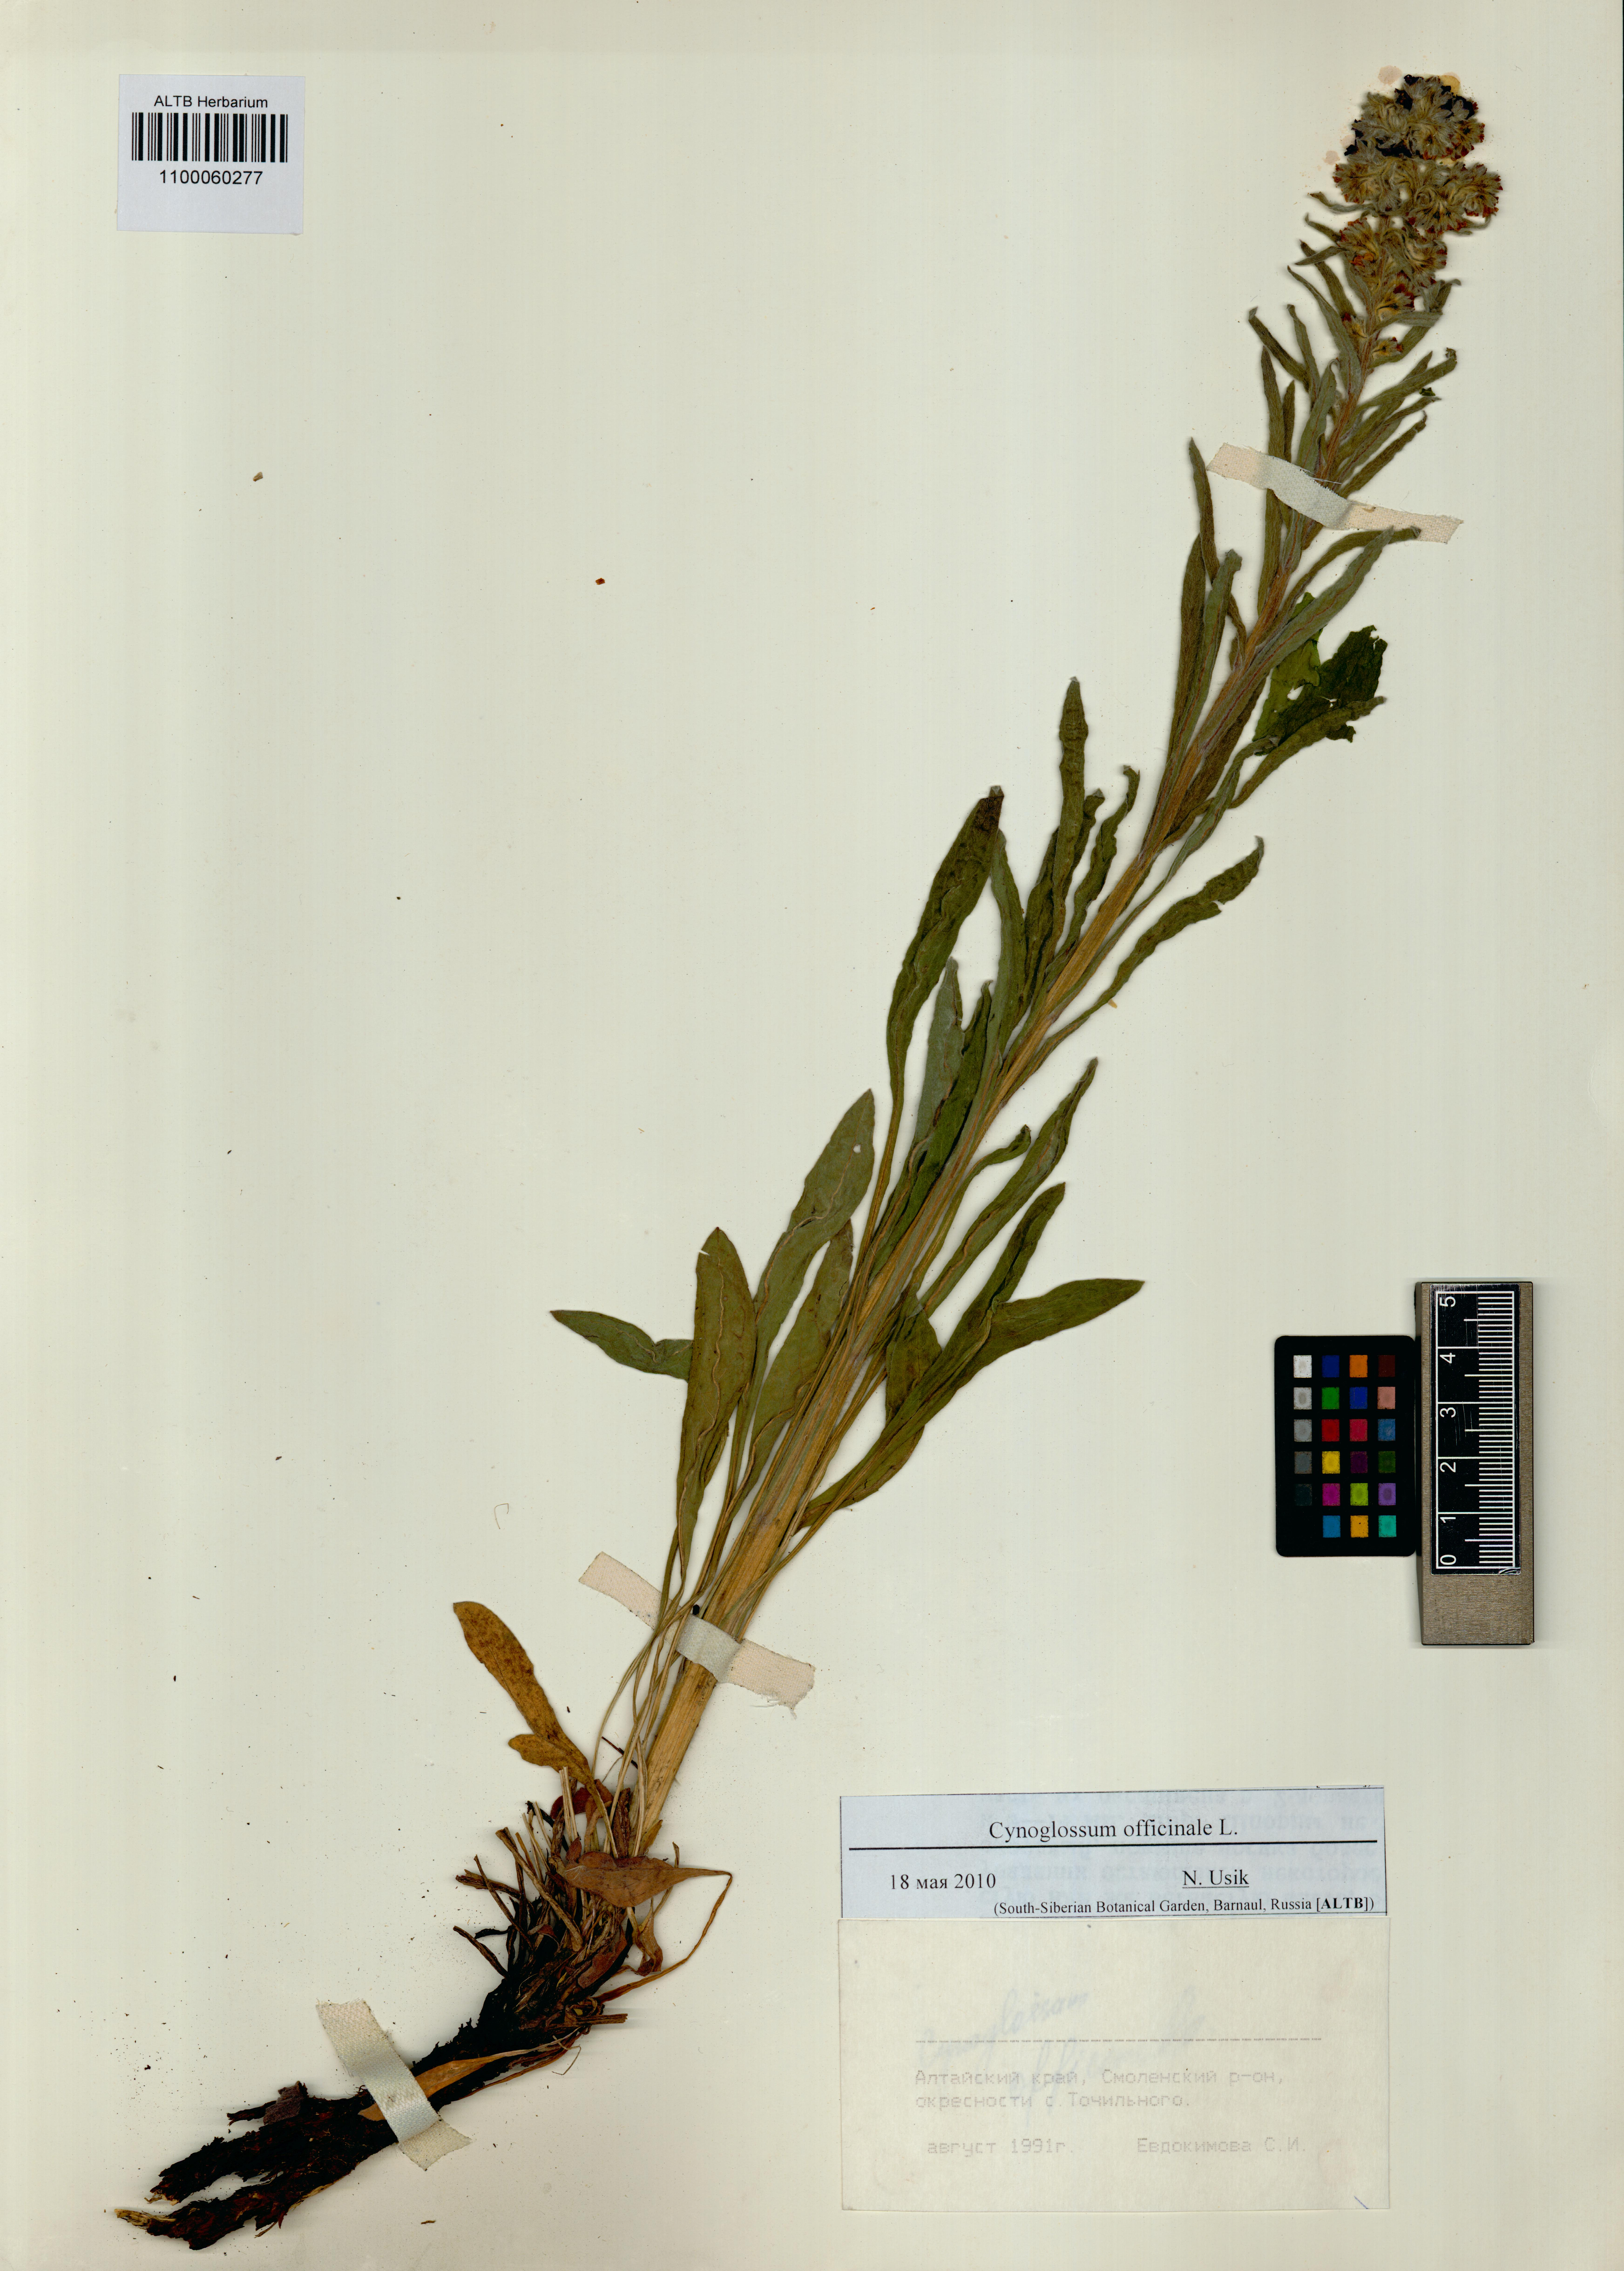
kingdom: Plantae
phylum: Tracheophyta
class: Magnoliopsida
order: Boraginales
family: Boraginaceae
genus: Cynoglossum
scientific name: Cynoglossum officinale
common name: Hound's-tongue
